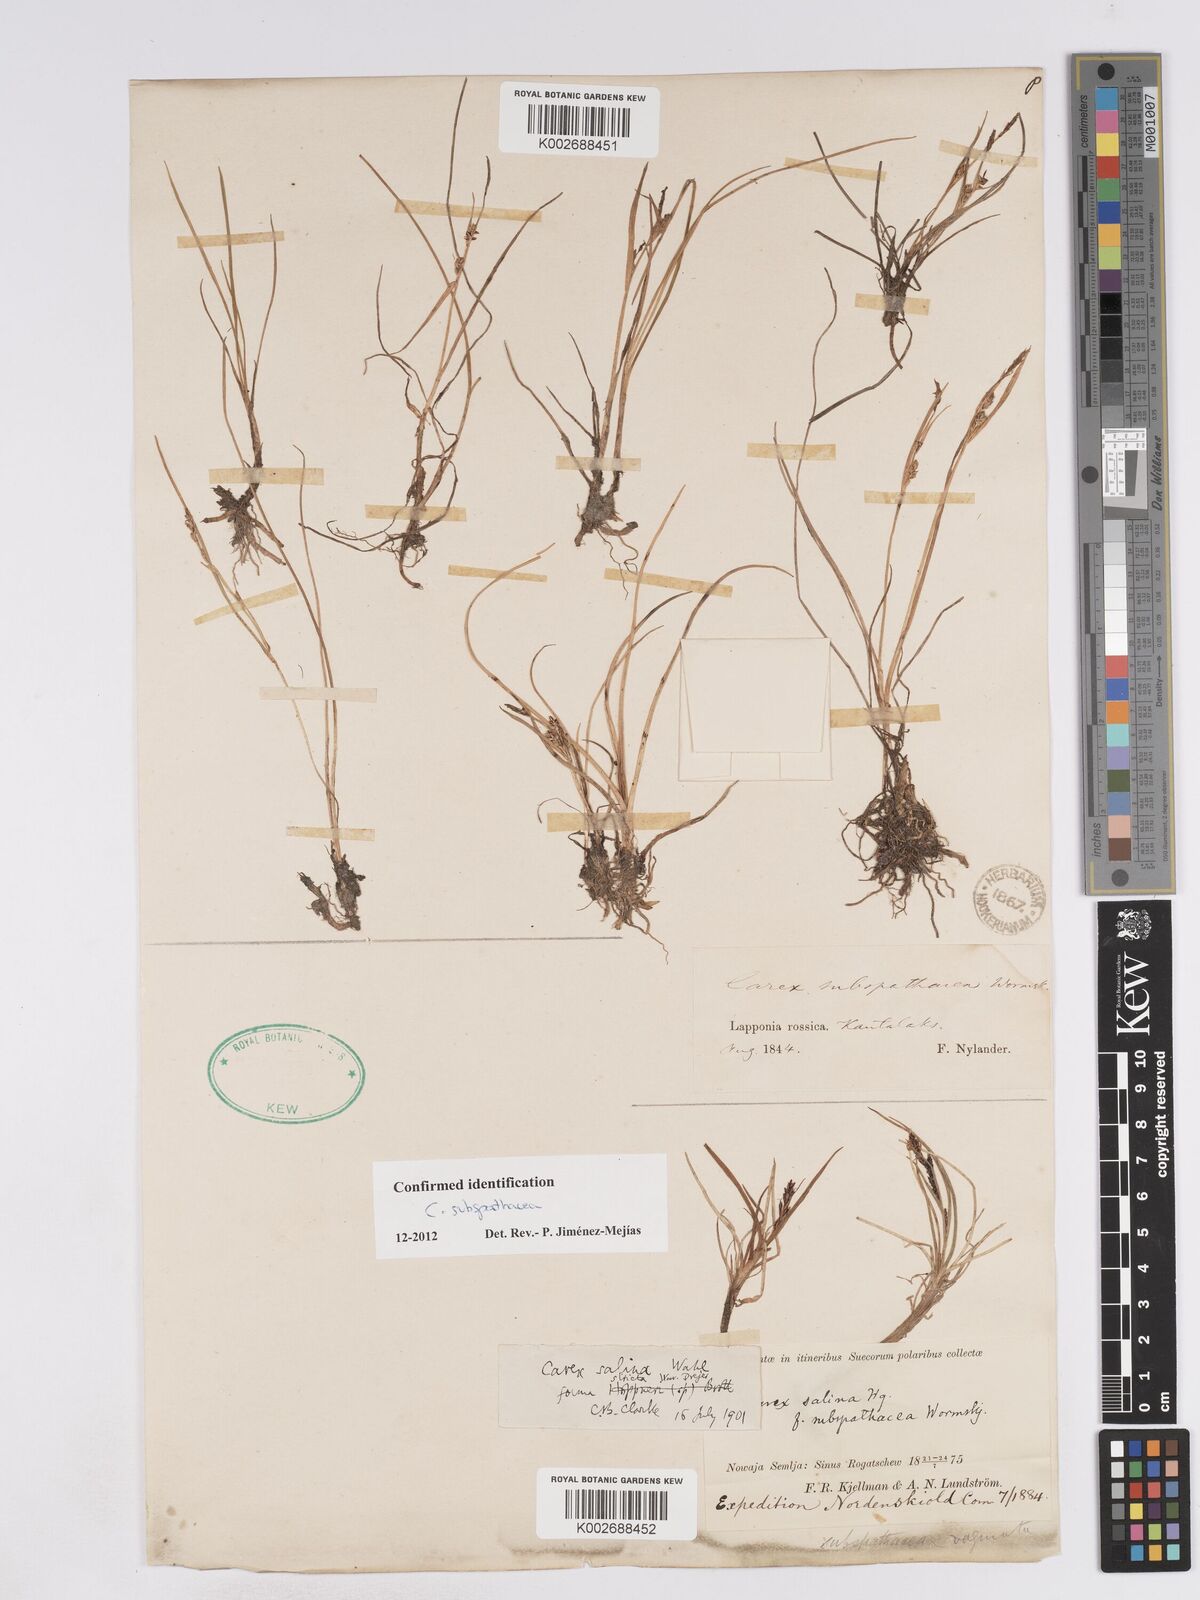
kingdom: Plantae
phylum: Tracheophyta
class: Liliopsida
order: Poales
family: Cyperaceae
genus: Carex
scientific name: Carex subspathacea
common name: Hoppner's sedge
